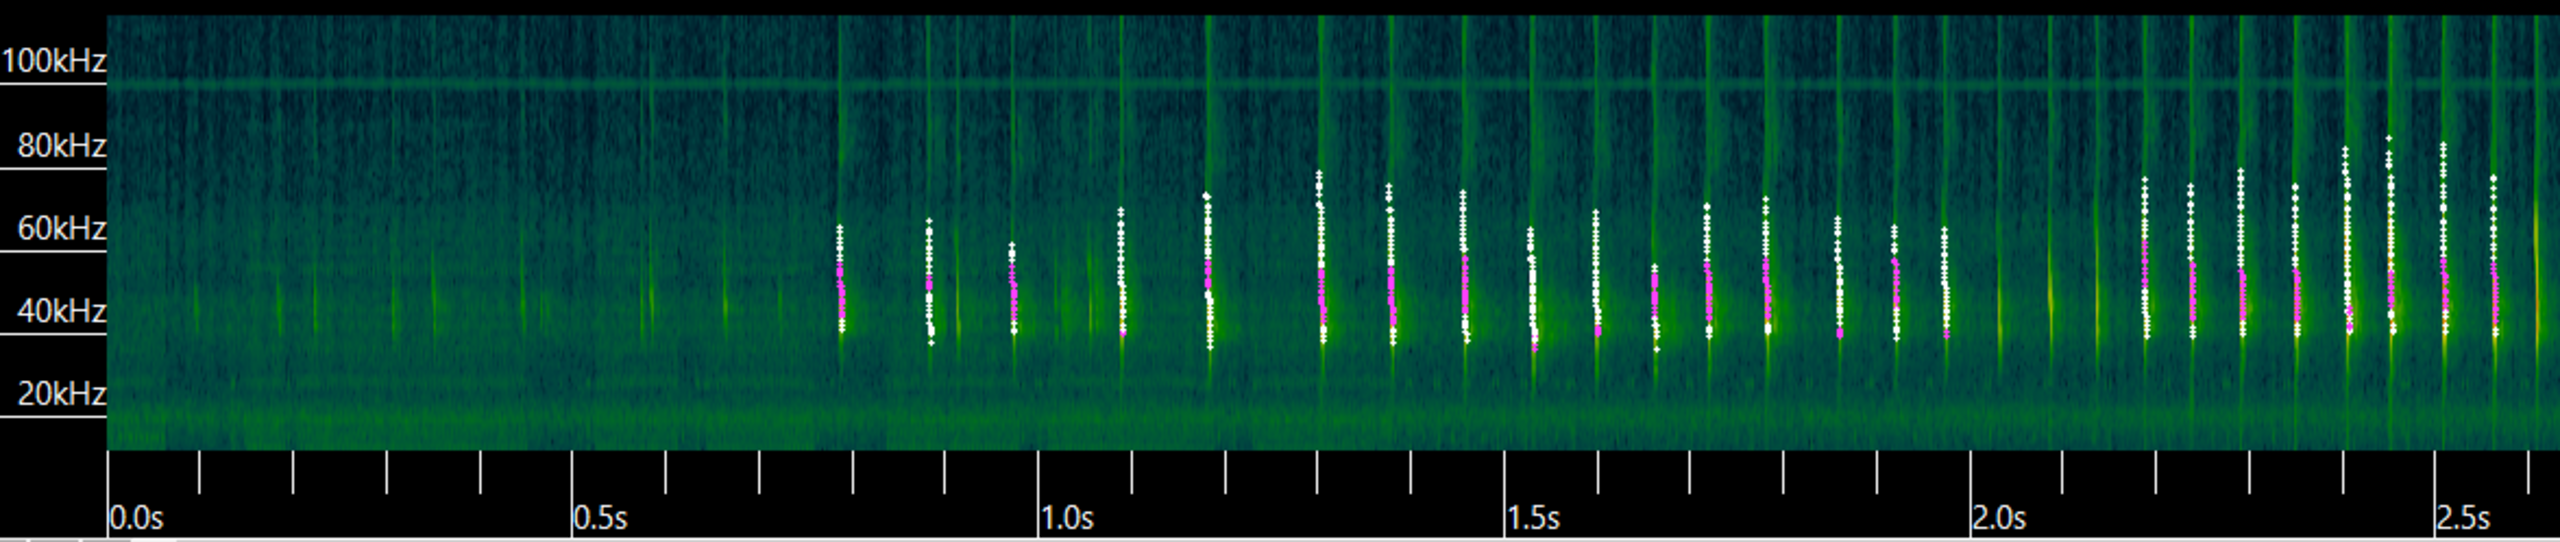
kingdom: Animalia
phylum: Chordata
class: Mammalia
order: Chiroptera
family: Vespertilionidae
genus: Myotis
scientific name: Myotis daubentonii
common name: Vandflagermus
